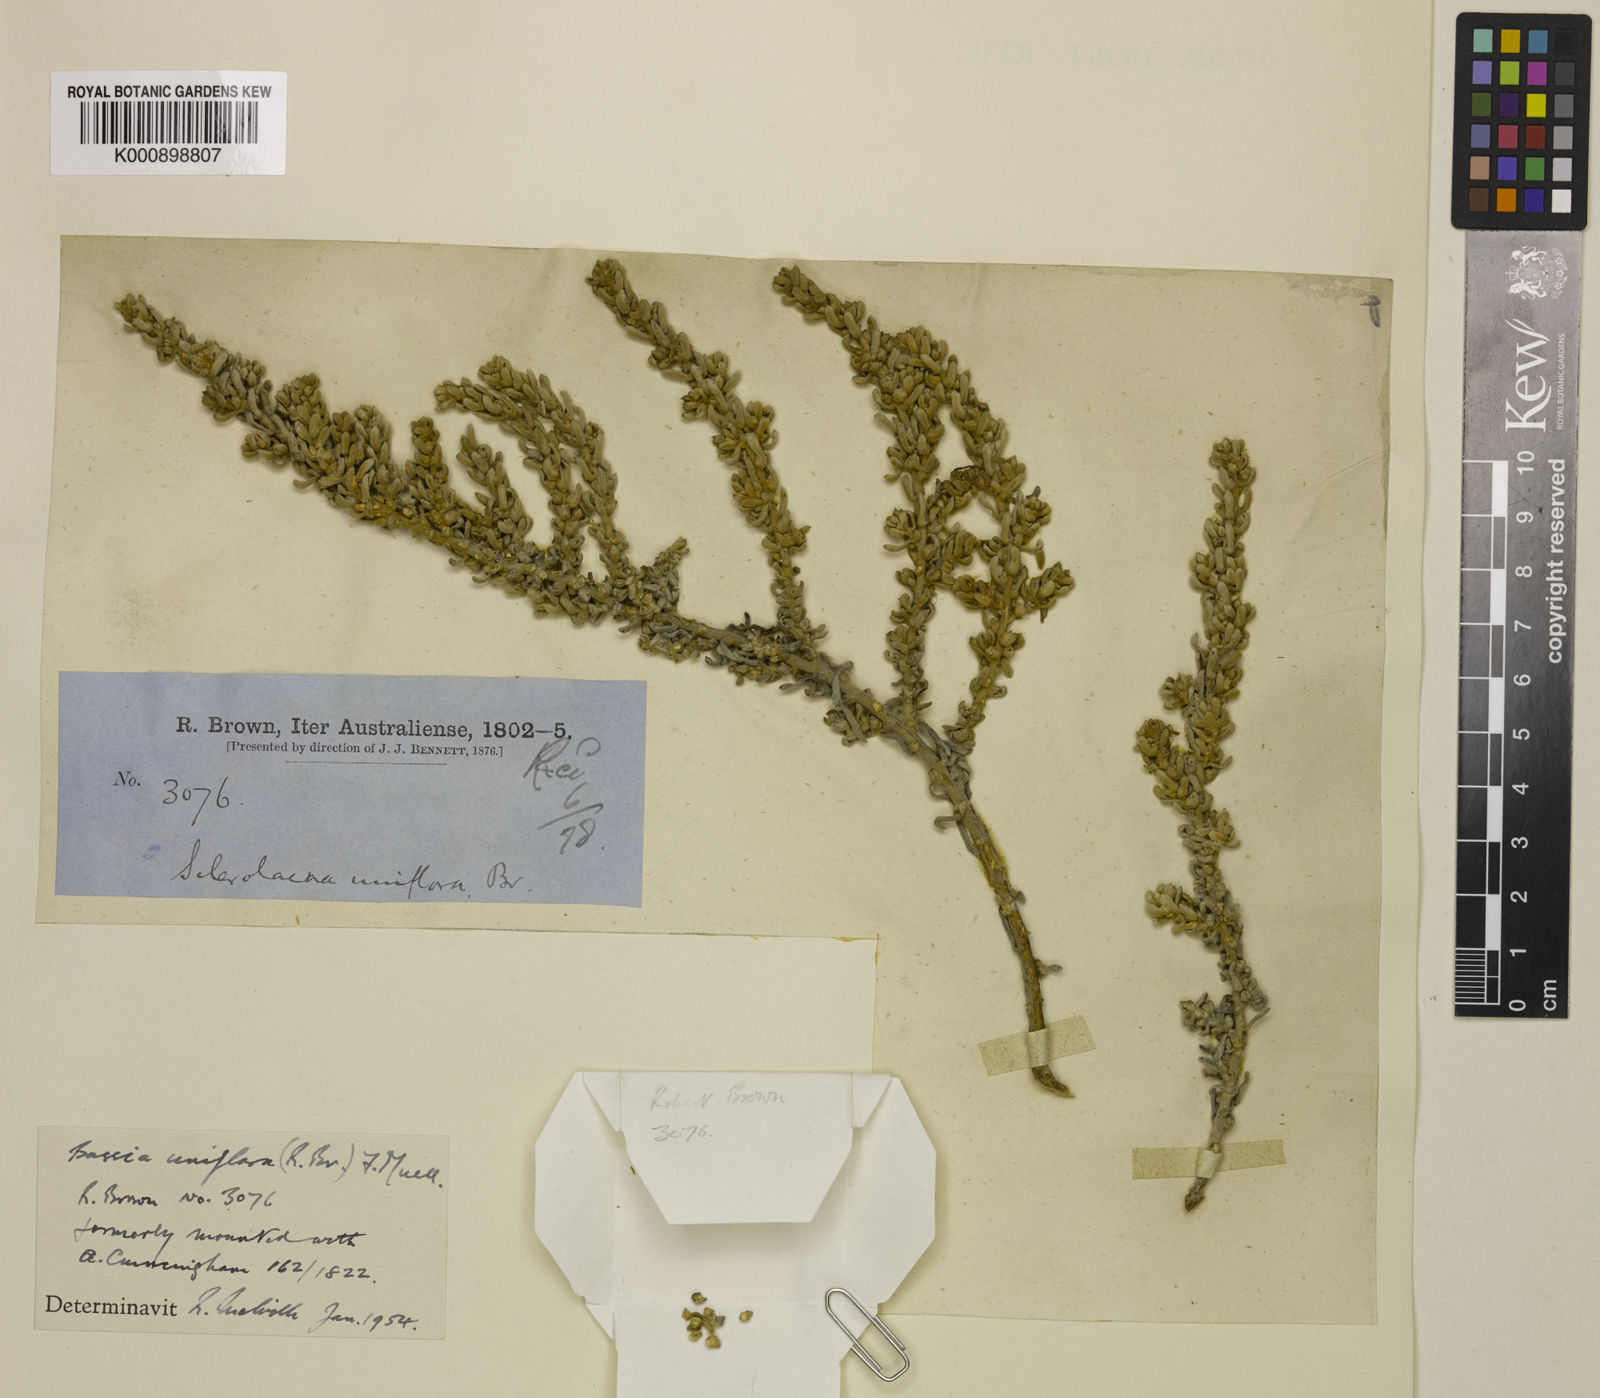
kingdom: Plantae
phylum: Tracheophyta
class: Magnoliopsida
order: Caryophyllales
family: Amaranthaceae
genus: Sclerolaena
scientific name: Sclerolaena uniflora
